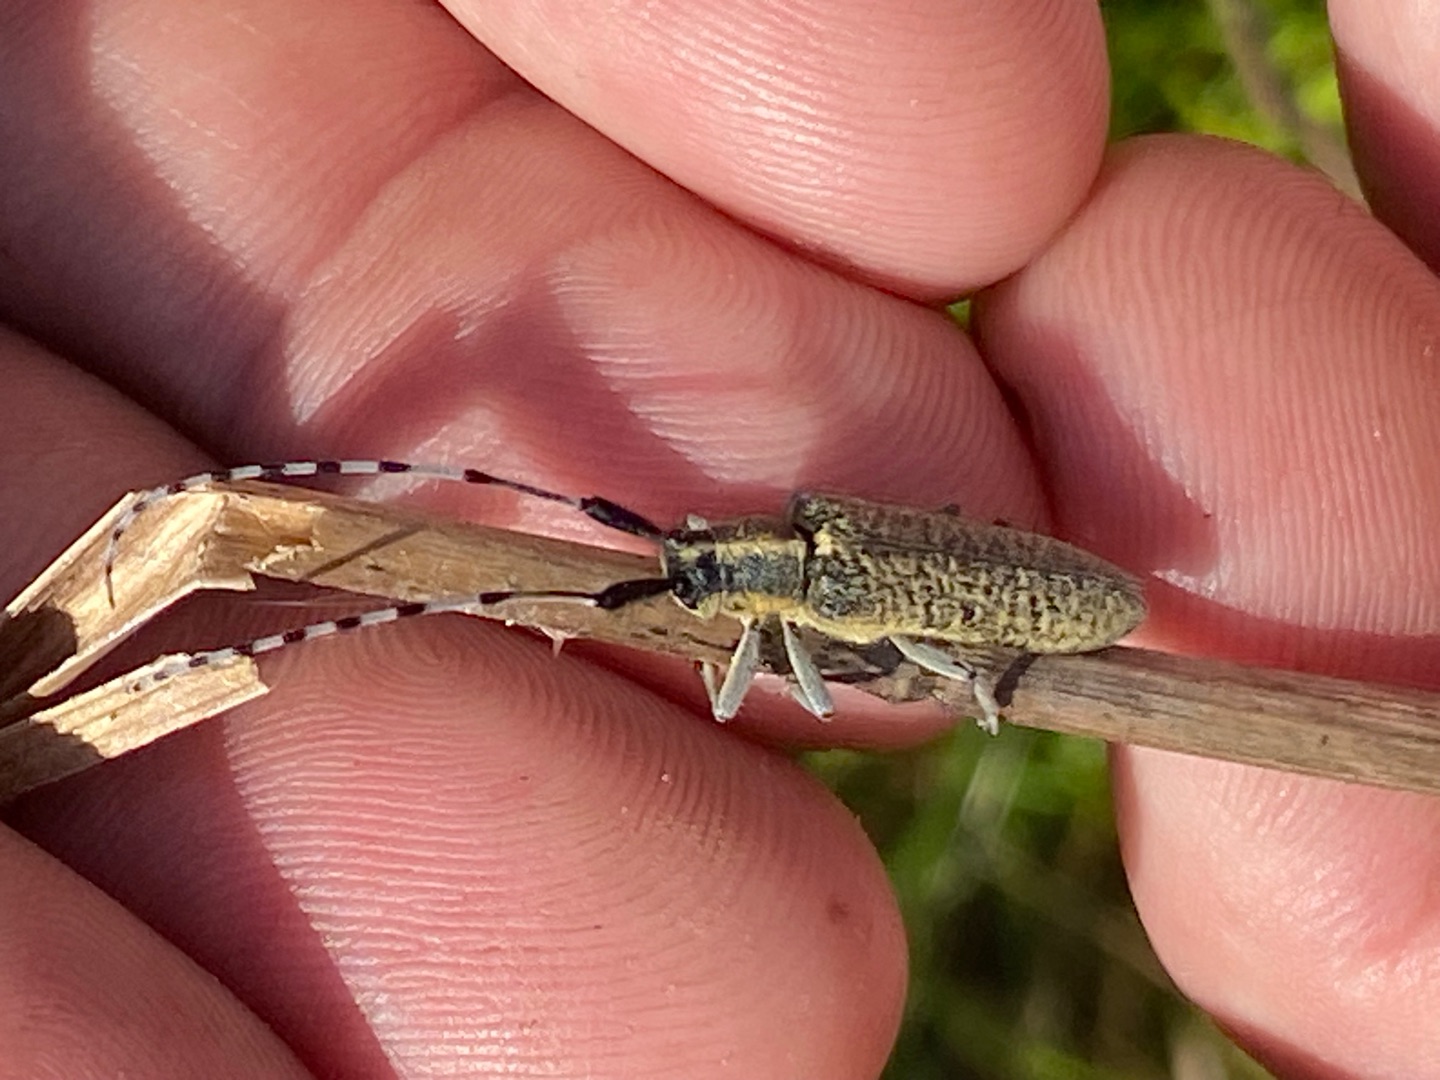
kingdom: Animalia
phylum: Arthropoda
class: Insecta
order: Coleoptera
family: Cerambycidae
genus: Agapanthia
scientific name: Agapanthia villosoviridescens
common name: Tidselbuk
